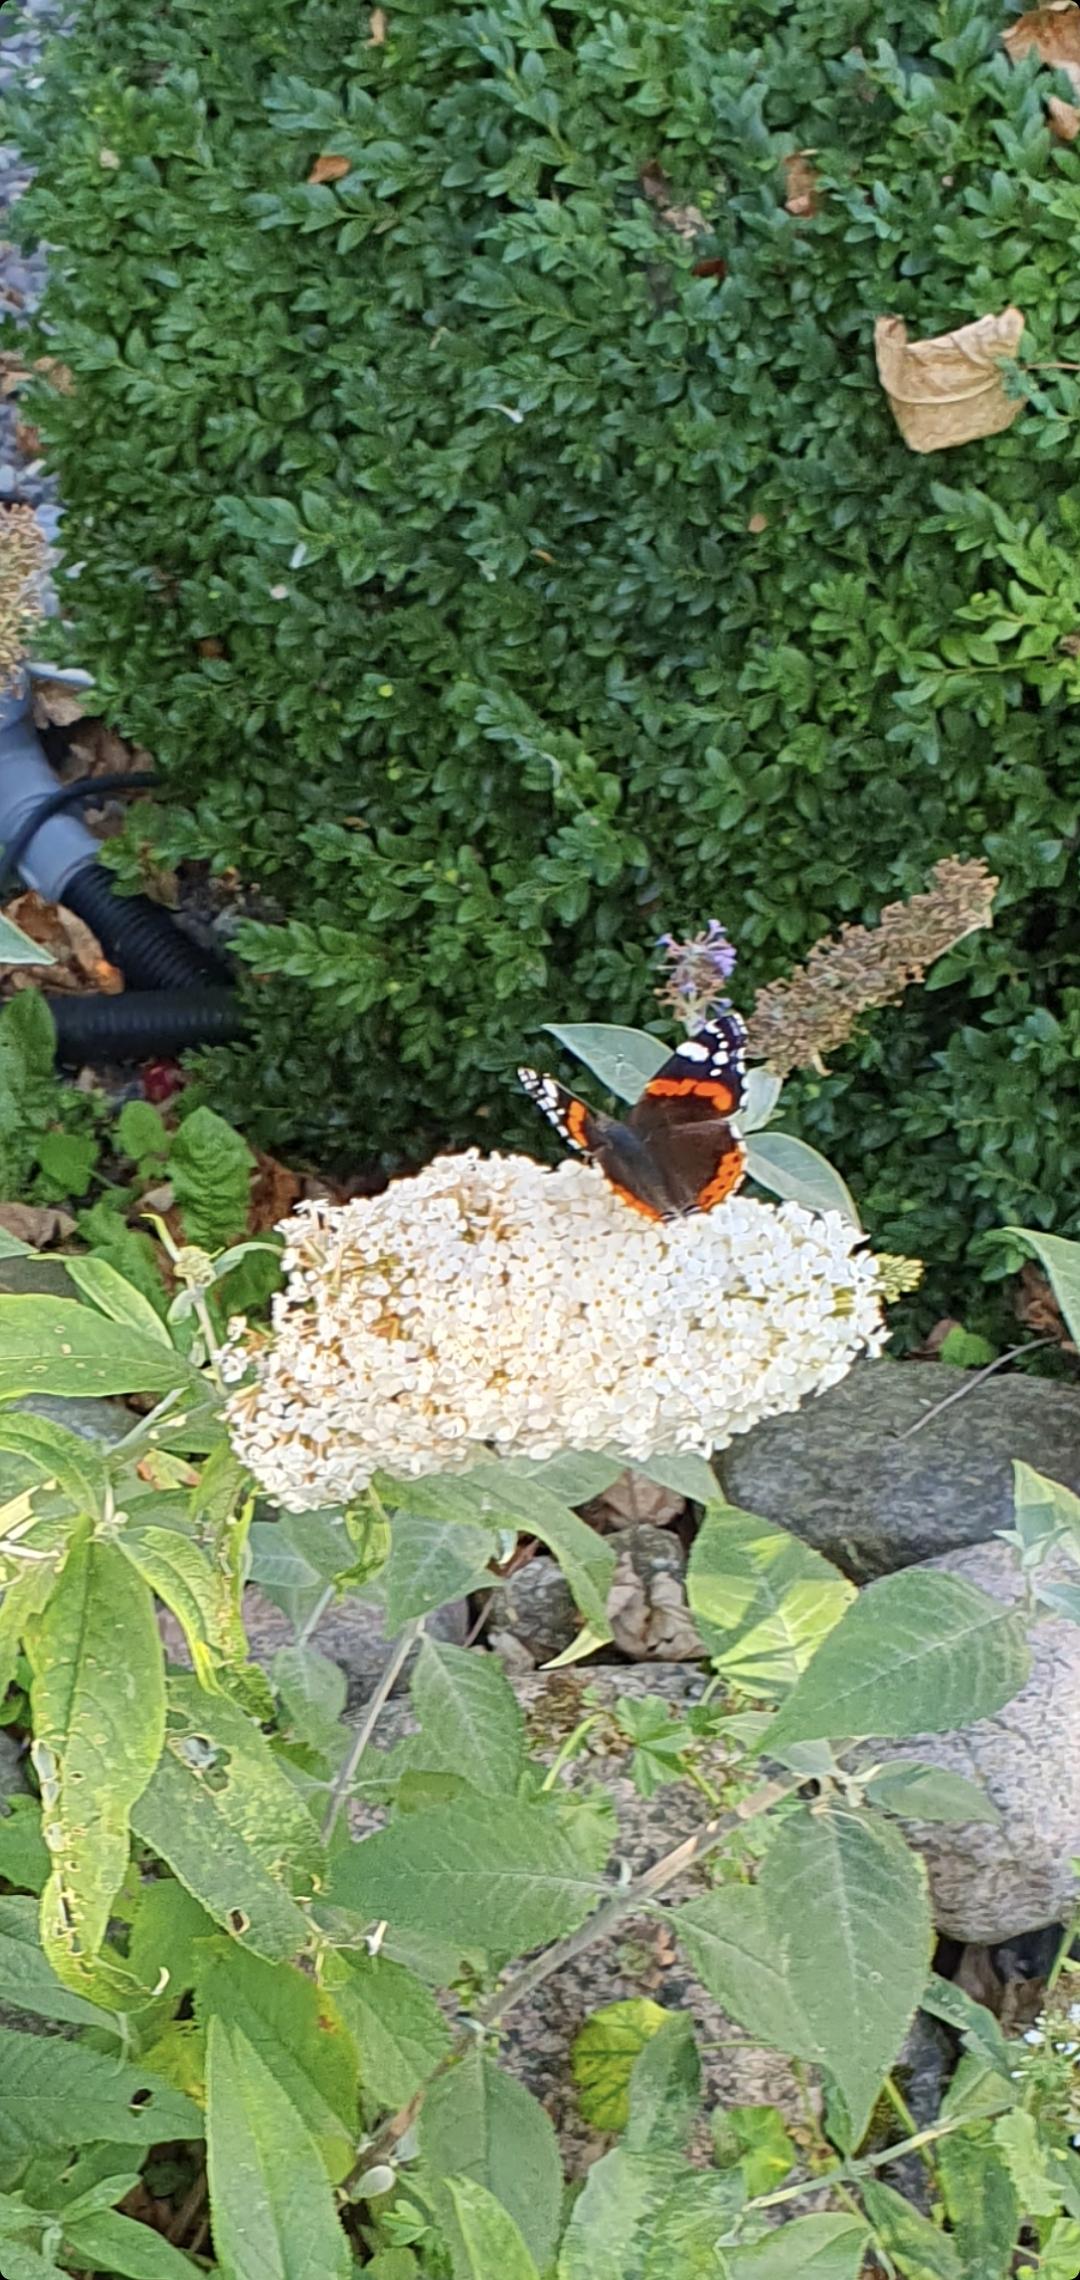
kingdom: Animalia
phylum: Arthropoda
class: Insecta
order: Lepidoptera
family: Nymphalidae
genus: Vanessa
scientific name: Vanessa atalanta
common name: Admiral
